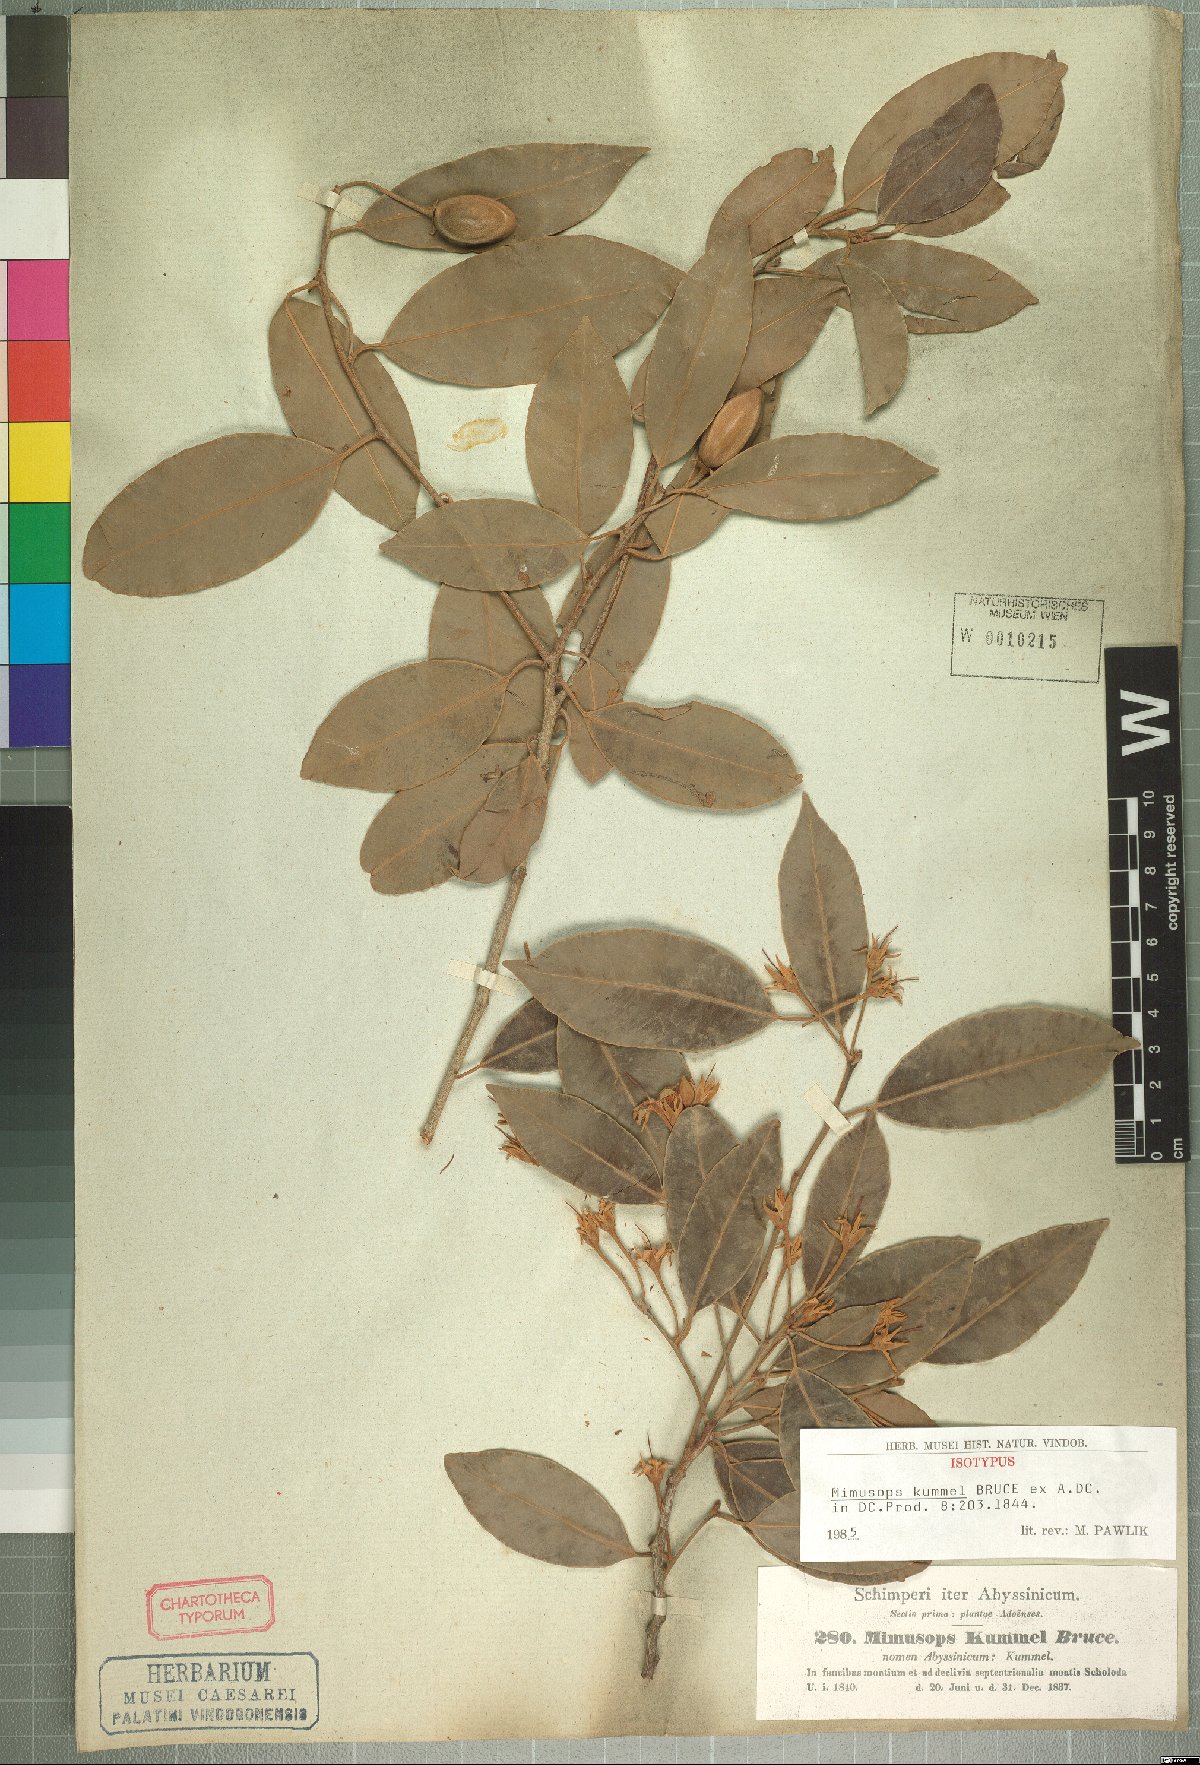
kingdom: Plantae
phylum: Tracheophyta
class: Magnoliopsida
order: Ericales
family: Sapotaceae
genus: Mimusops
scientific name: Mimusops kummel
